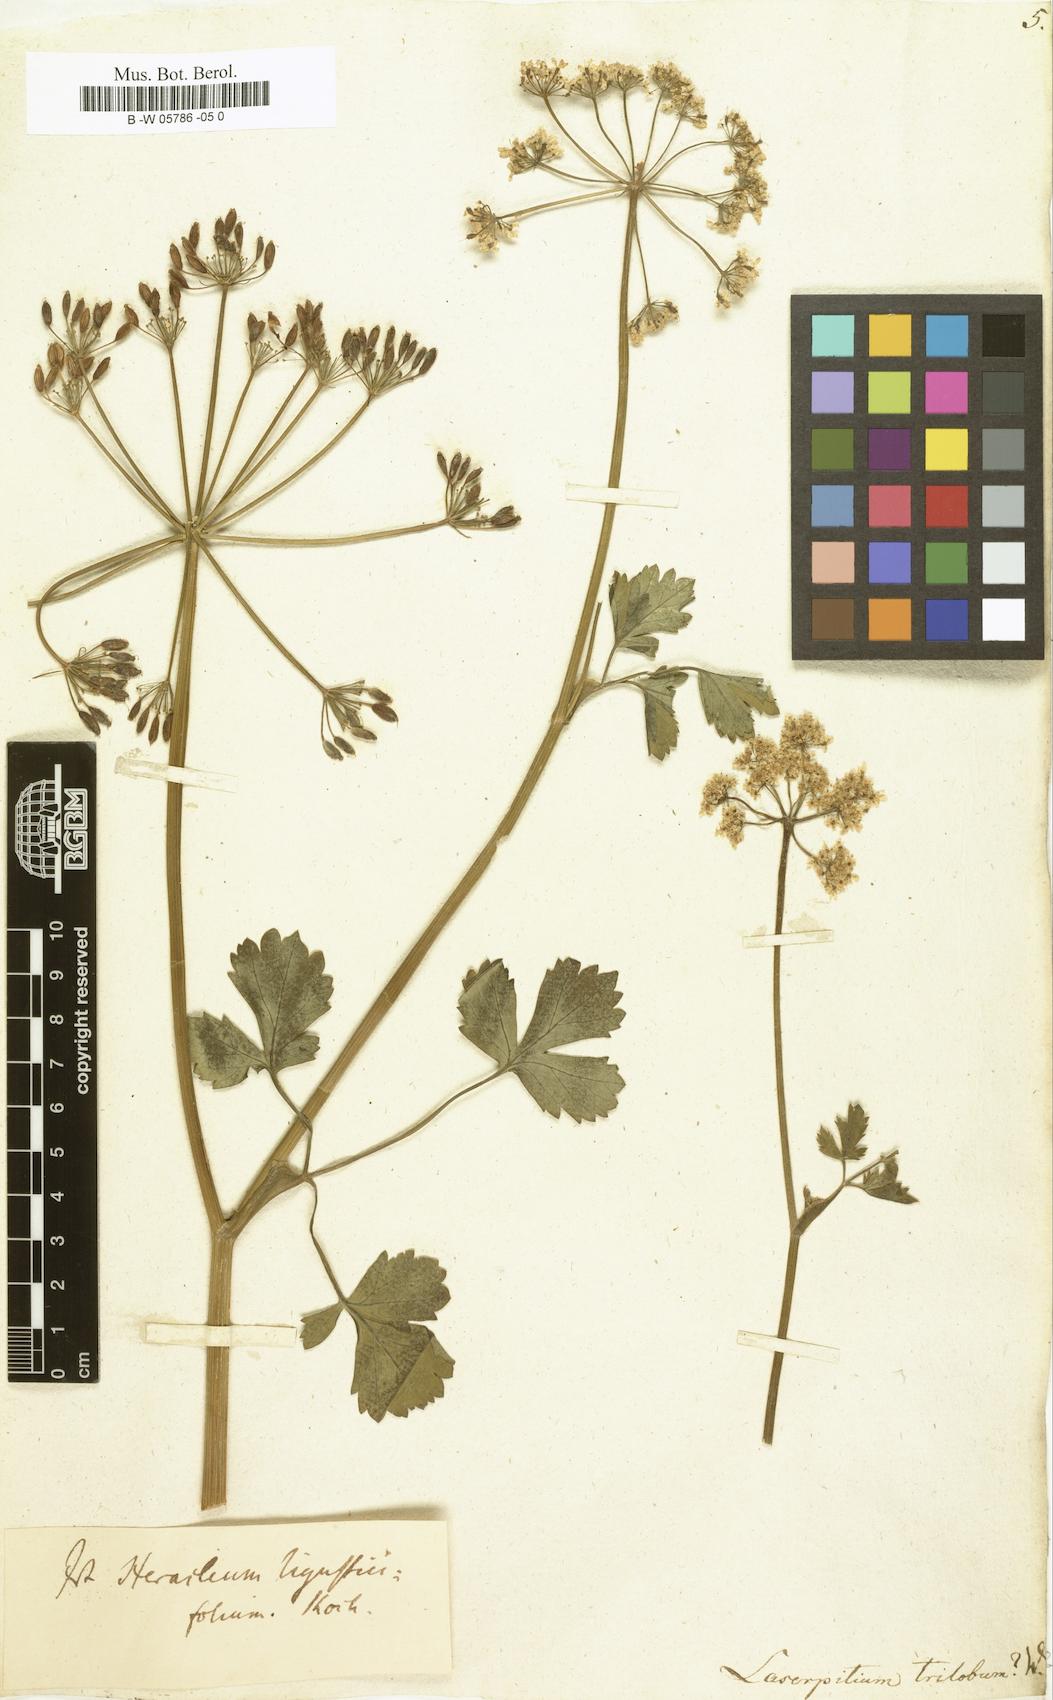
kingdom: Plantae
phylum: Tracheophyta
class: Magnoliopsida
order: Apiales
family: Apiaceae
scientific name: Apiaceae
